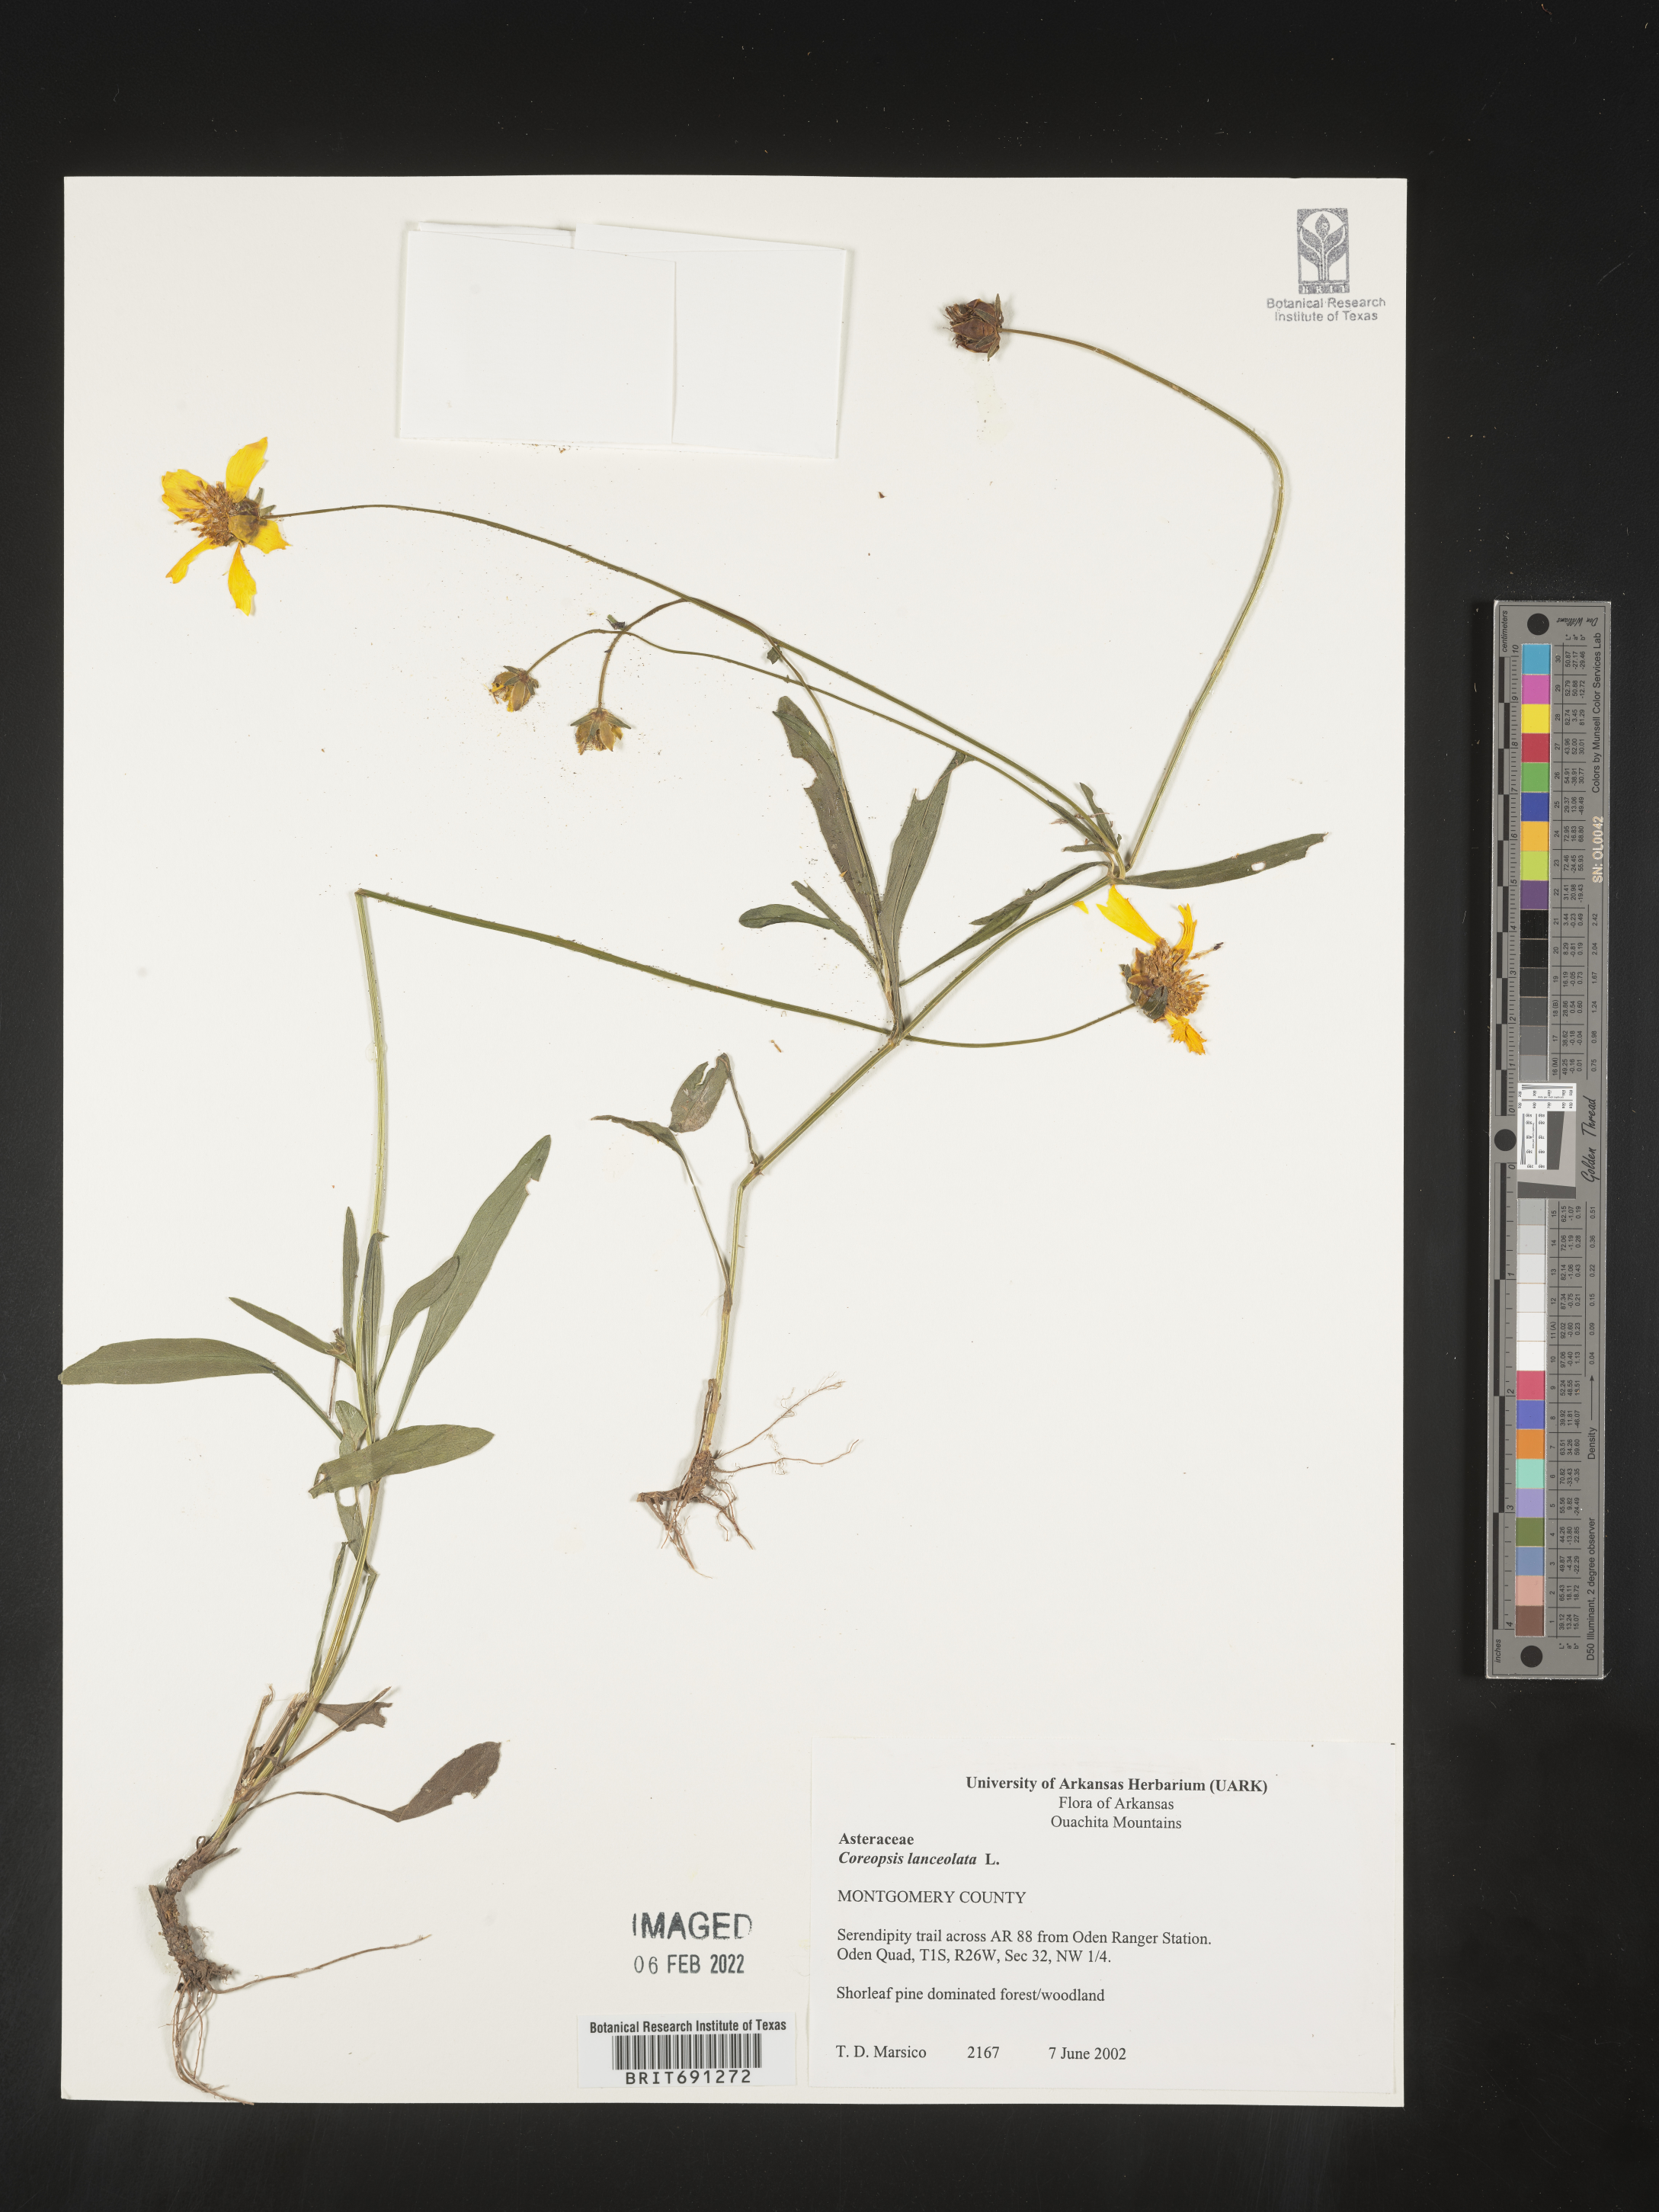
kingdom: Plantae
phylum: Tracheophyta
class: Magnoliopsida
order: Asterales
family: Asteraceae
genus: Coreopsis
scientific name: Coreopsis lanceolata
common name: Garden coreopsis
